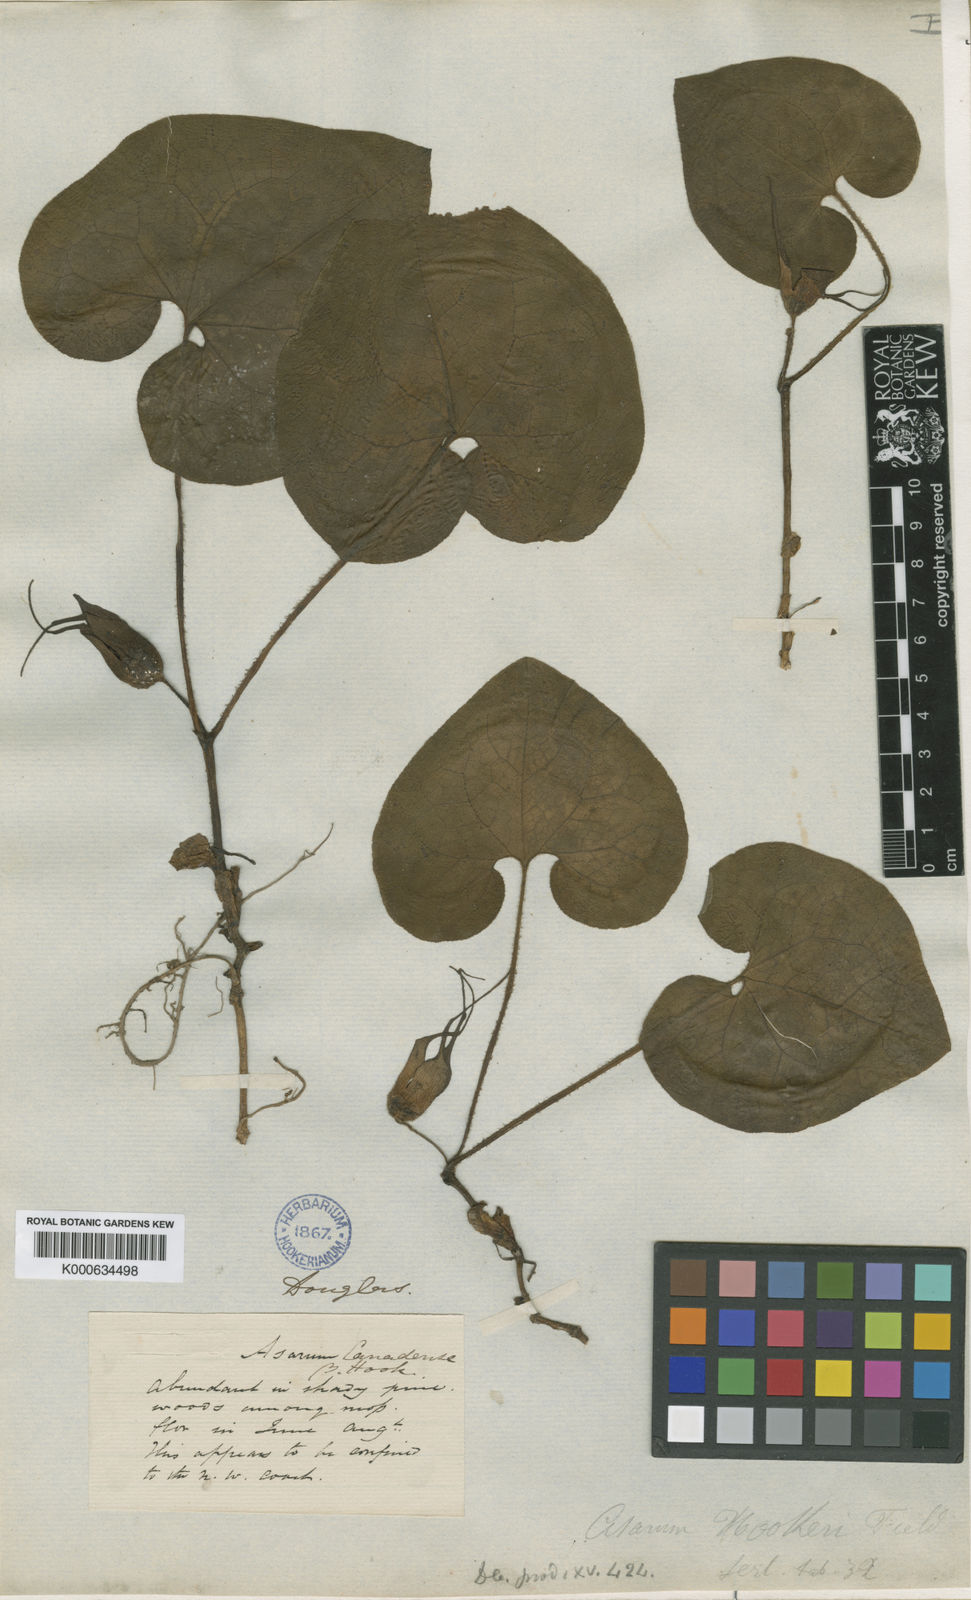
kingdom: Plantae
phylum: Tracheophyta
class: Magnoliopsida
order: Piperales
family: Aristolochiaceae
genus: Asarum
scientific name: Asarum canadense
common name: Wild ginger
